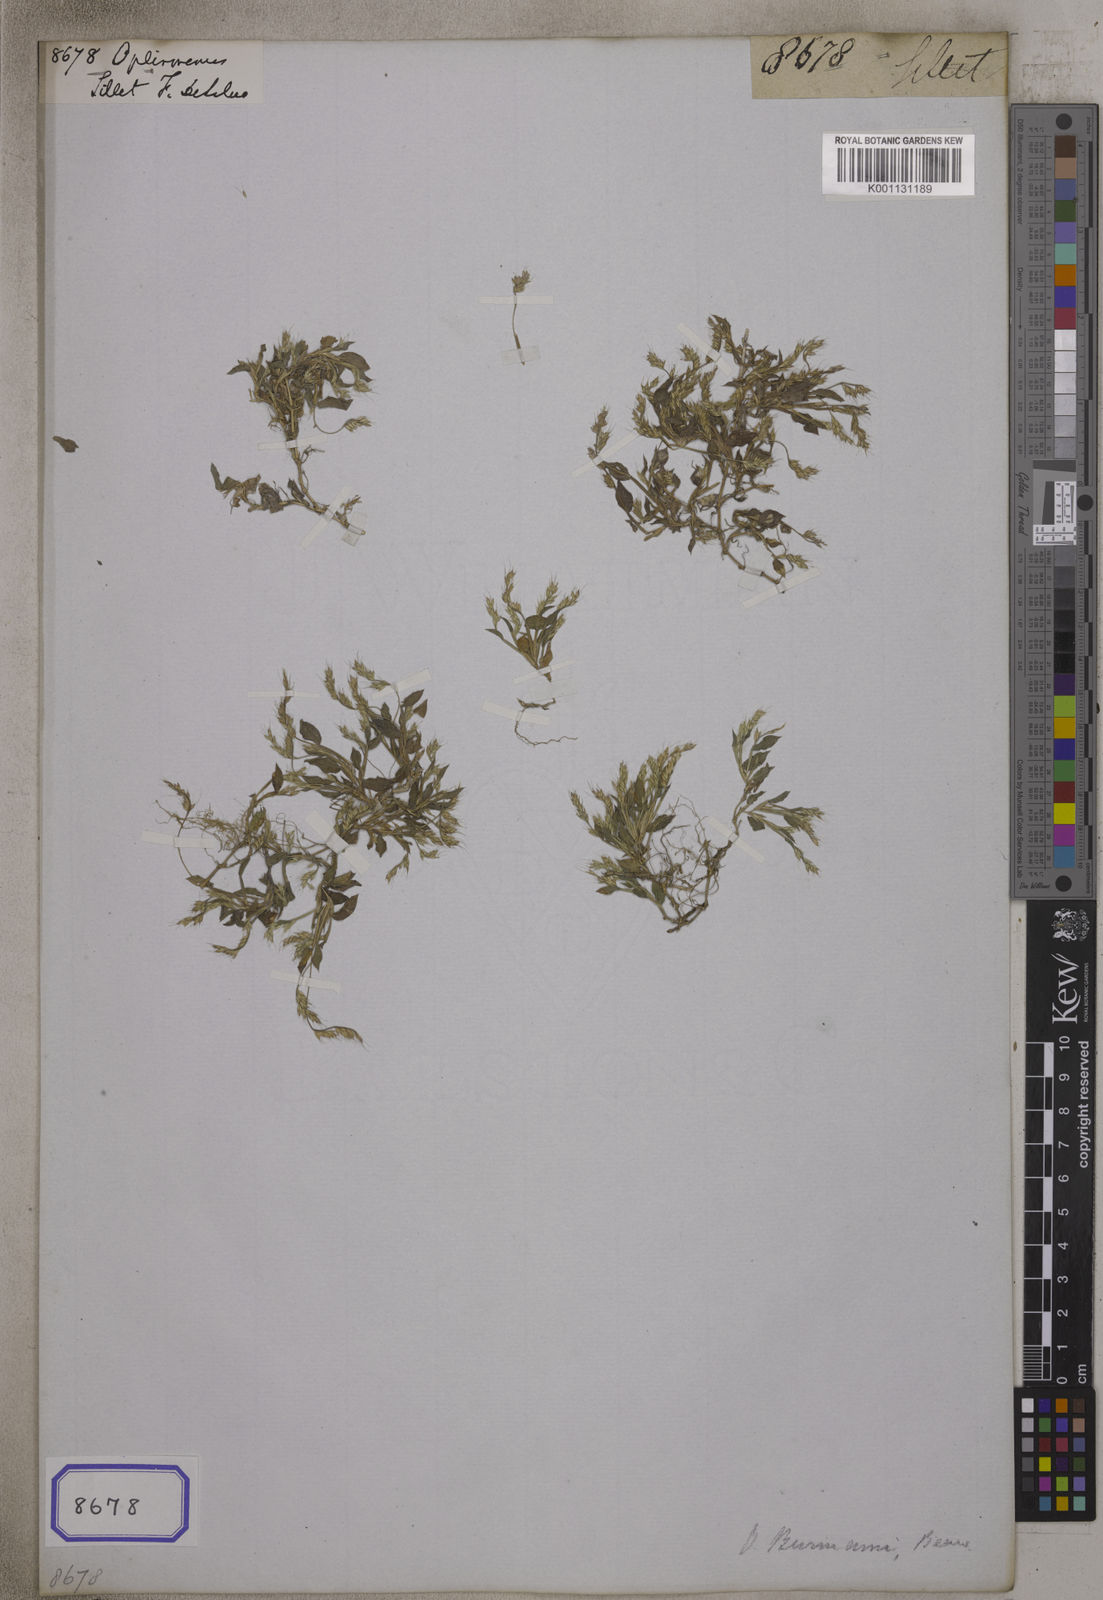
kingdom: Plantae
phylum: Tracheophyta
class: Liliopsida
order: Poales
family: Poaceae
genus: Oplismenus
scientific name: Oplismenus
